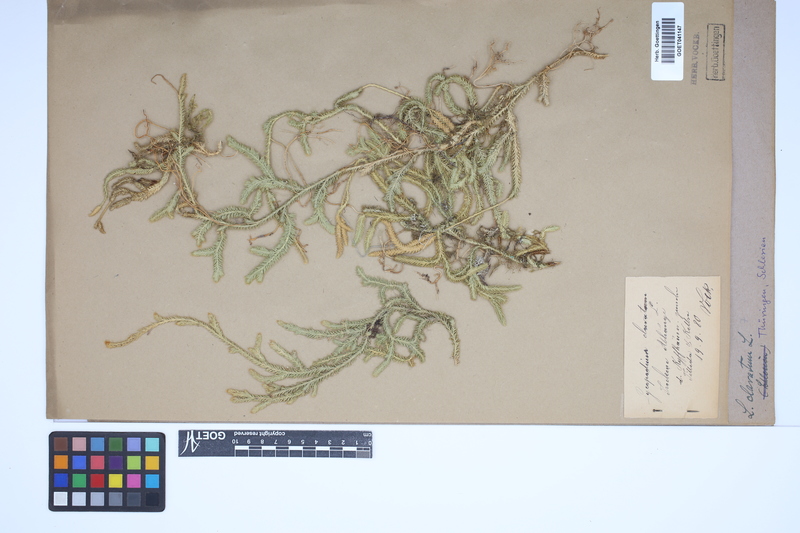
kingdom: Plantae
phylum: Tracheophyta
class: Lycopodiopsida
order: Lycopodiales
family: Lycopodiaceae
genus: Lycopodium
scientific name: Lycopodium clavatum
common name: Stag's-horn clubmoss
